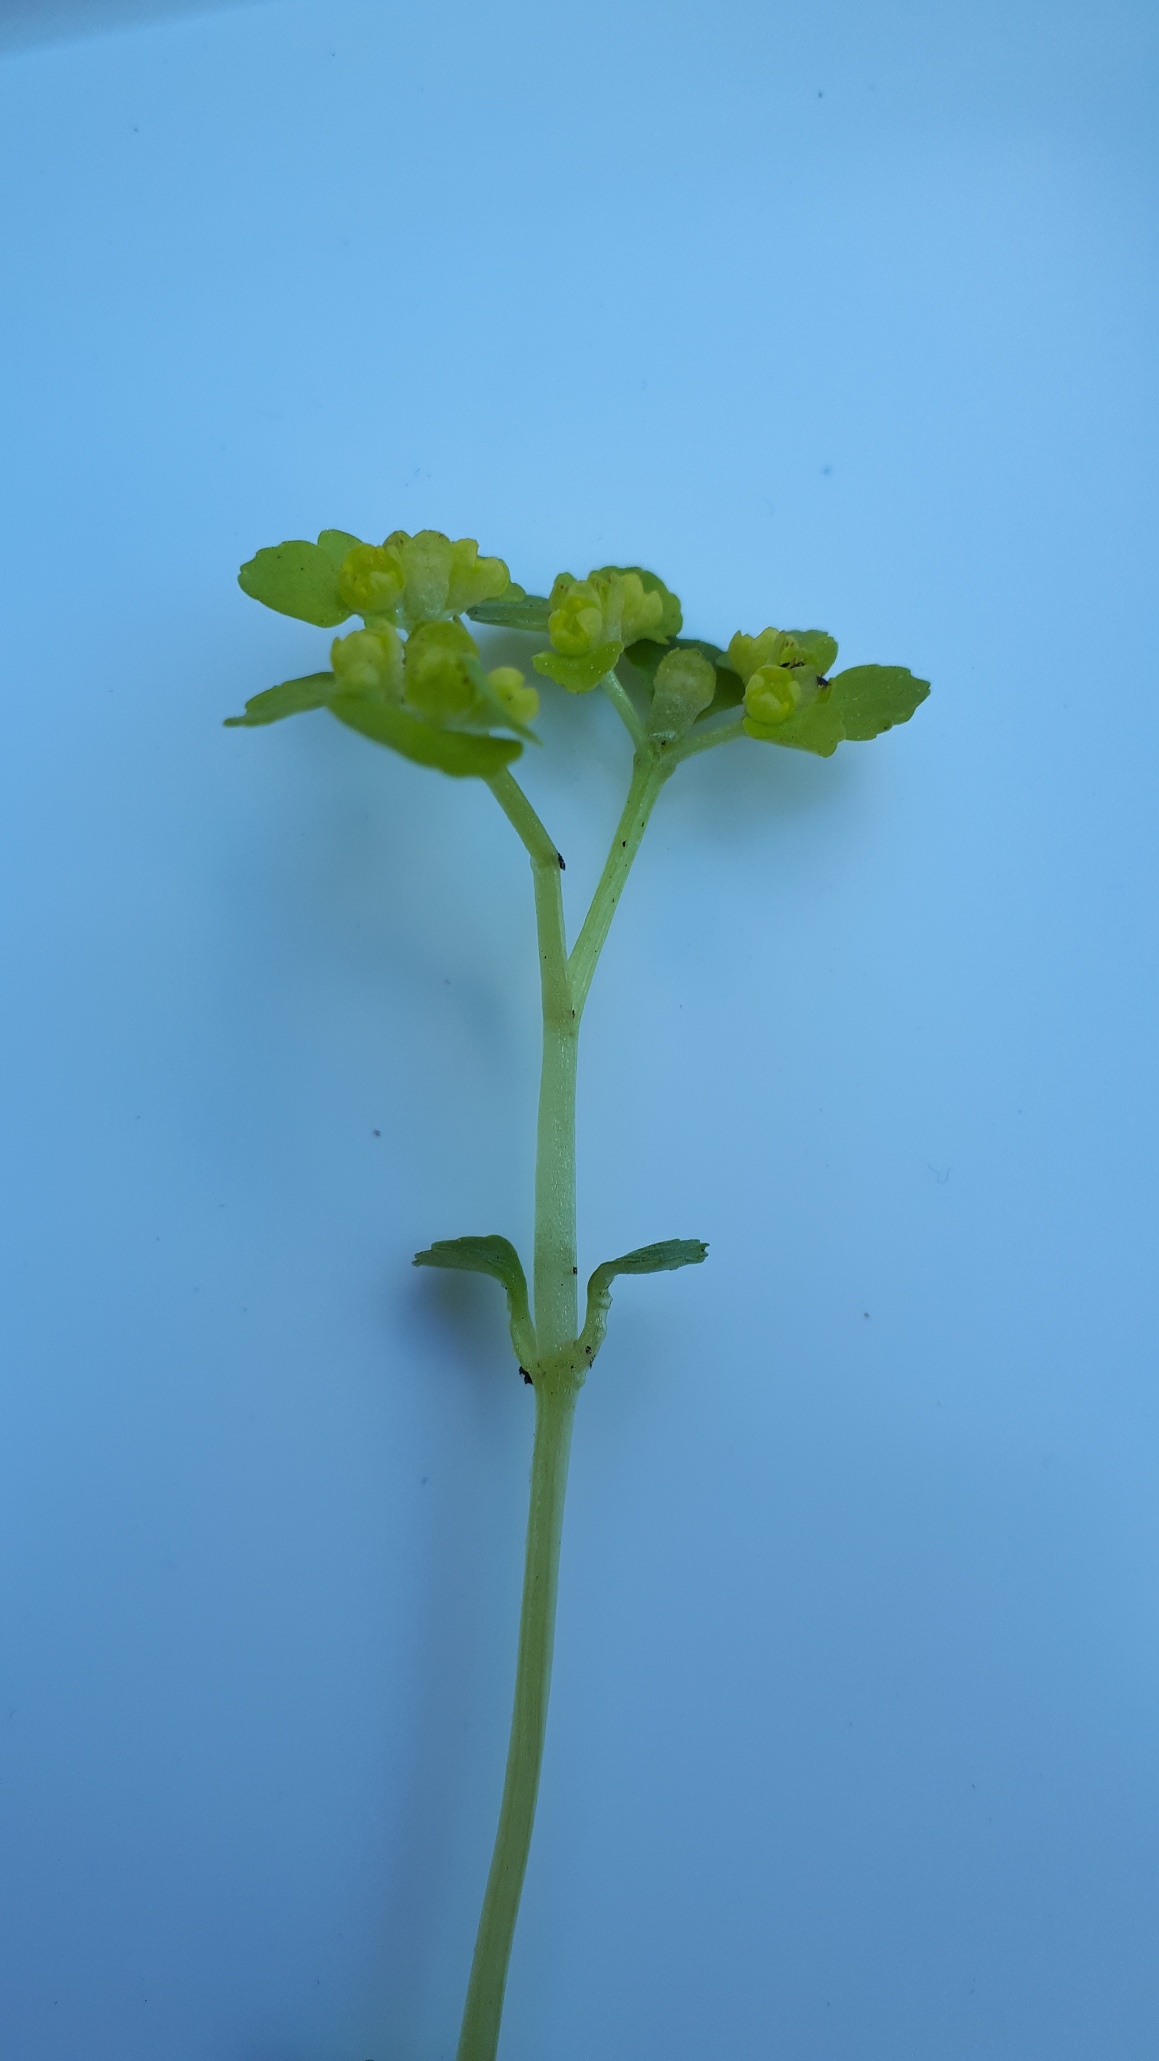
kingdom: Plantae
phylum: Tracheophyta
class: Magnoliopsida
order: Saxifragales
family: Saxifragaceae
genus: Chrysosplenium
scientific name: Chrysosplenium oppositifolium
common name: Småbladet milturt
